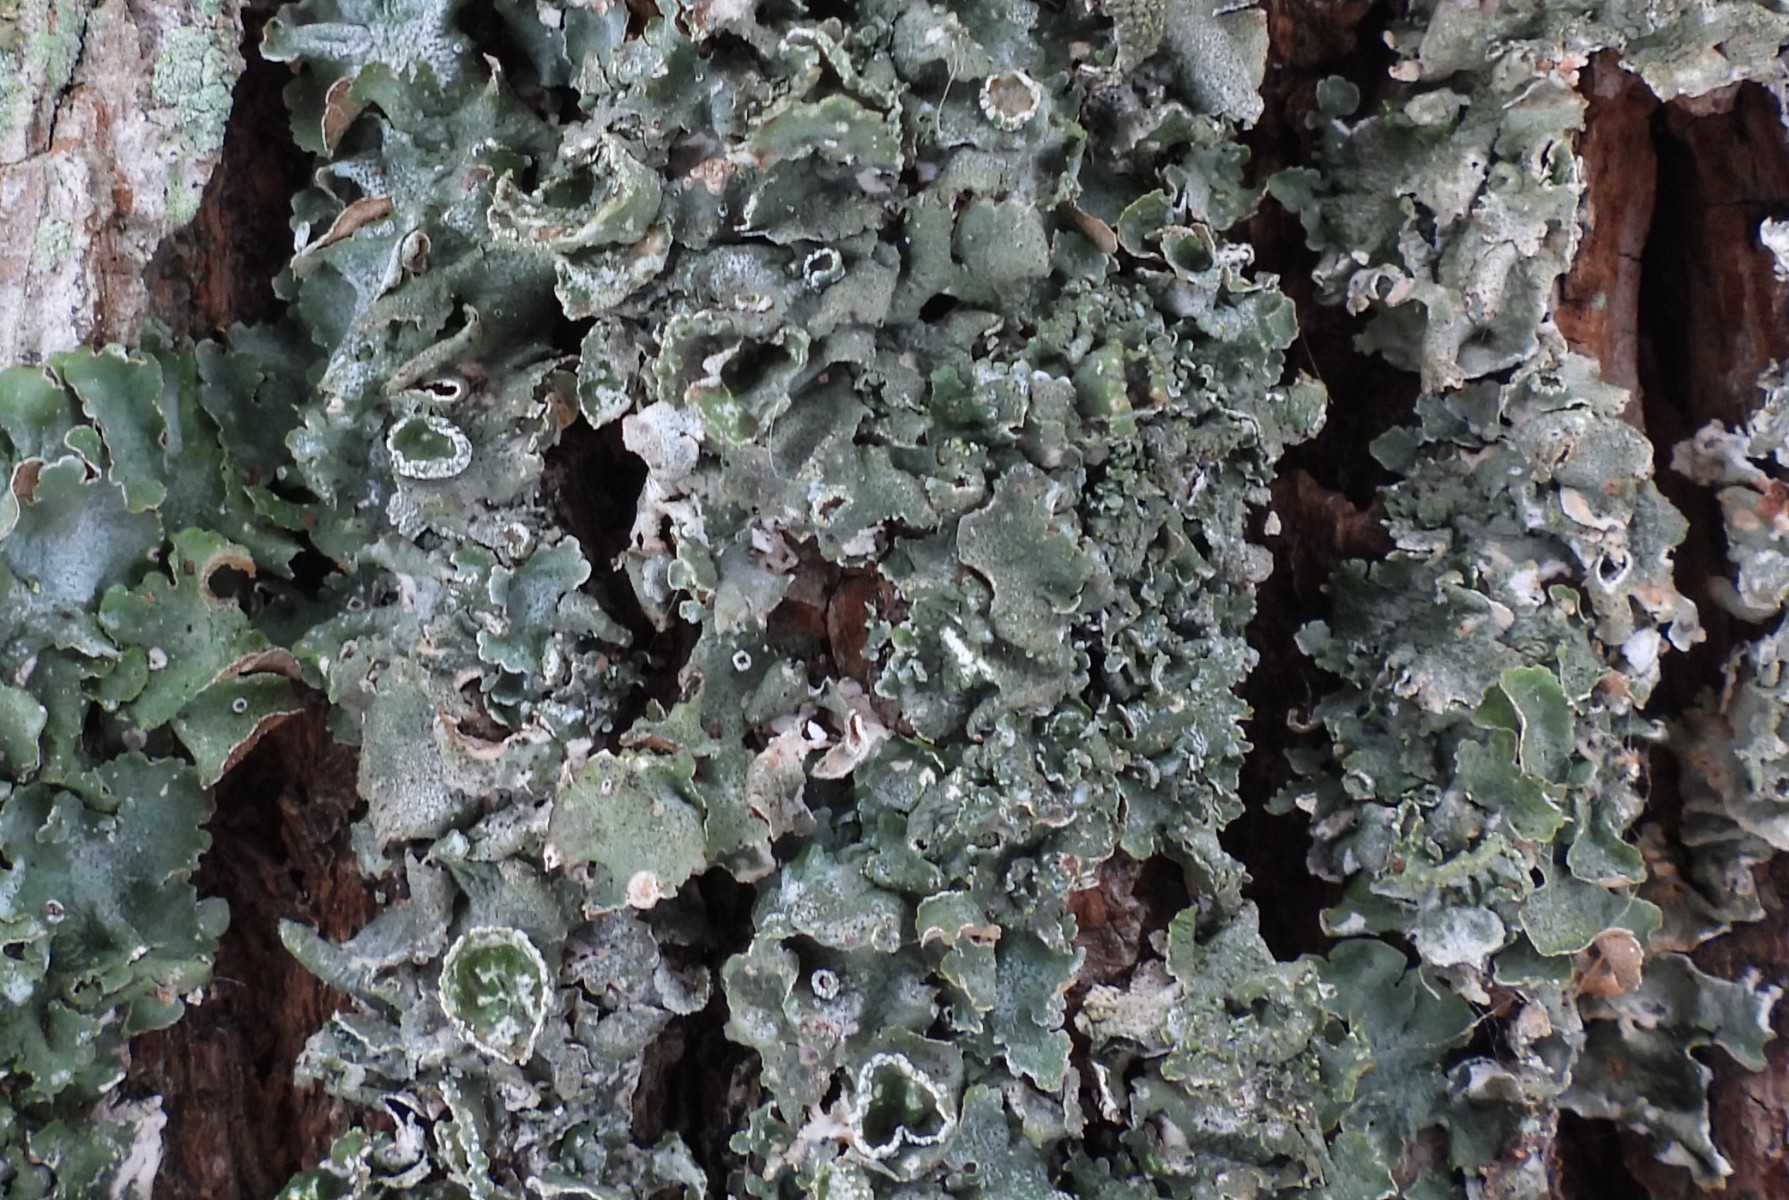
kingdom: Fungi
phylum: Ascomycota
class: Lecanoromycetes
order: Lecanorales
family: Parmeliaceae
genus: Pleurosticta
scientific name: Pleurosticta acetabulum
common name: stor skållav
